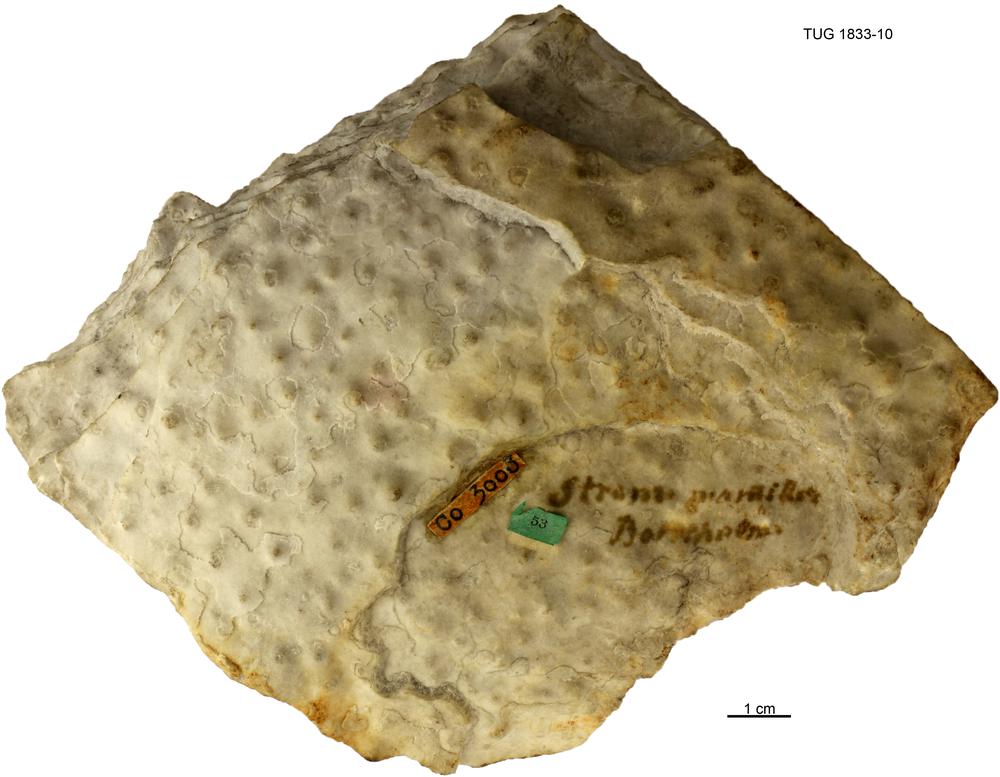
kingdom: Animalia
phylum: Porifera
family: Clathrodictyidae
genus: Stelodictyon
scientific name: Stelodictyon
